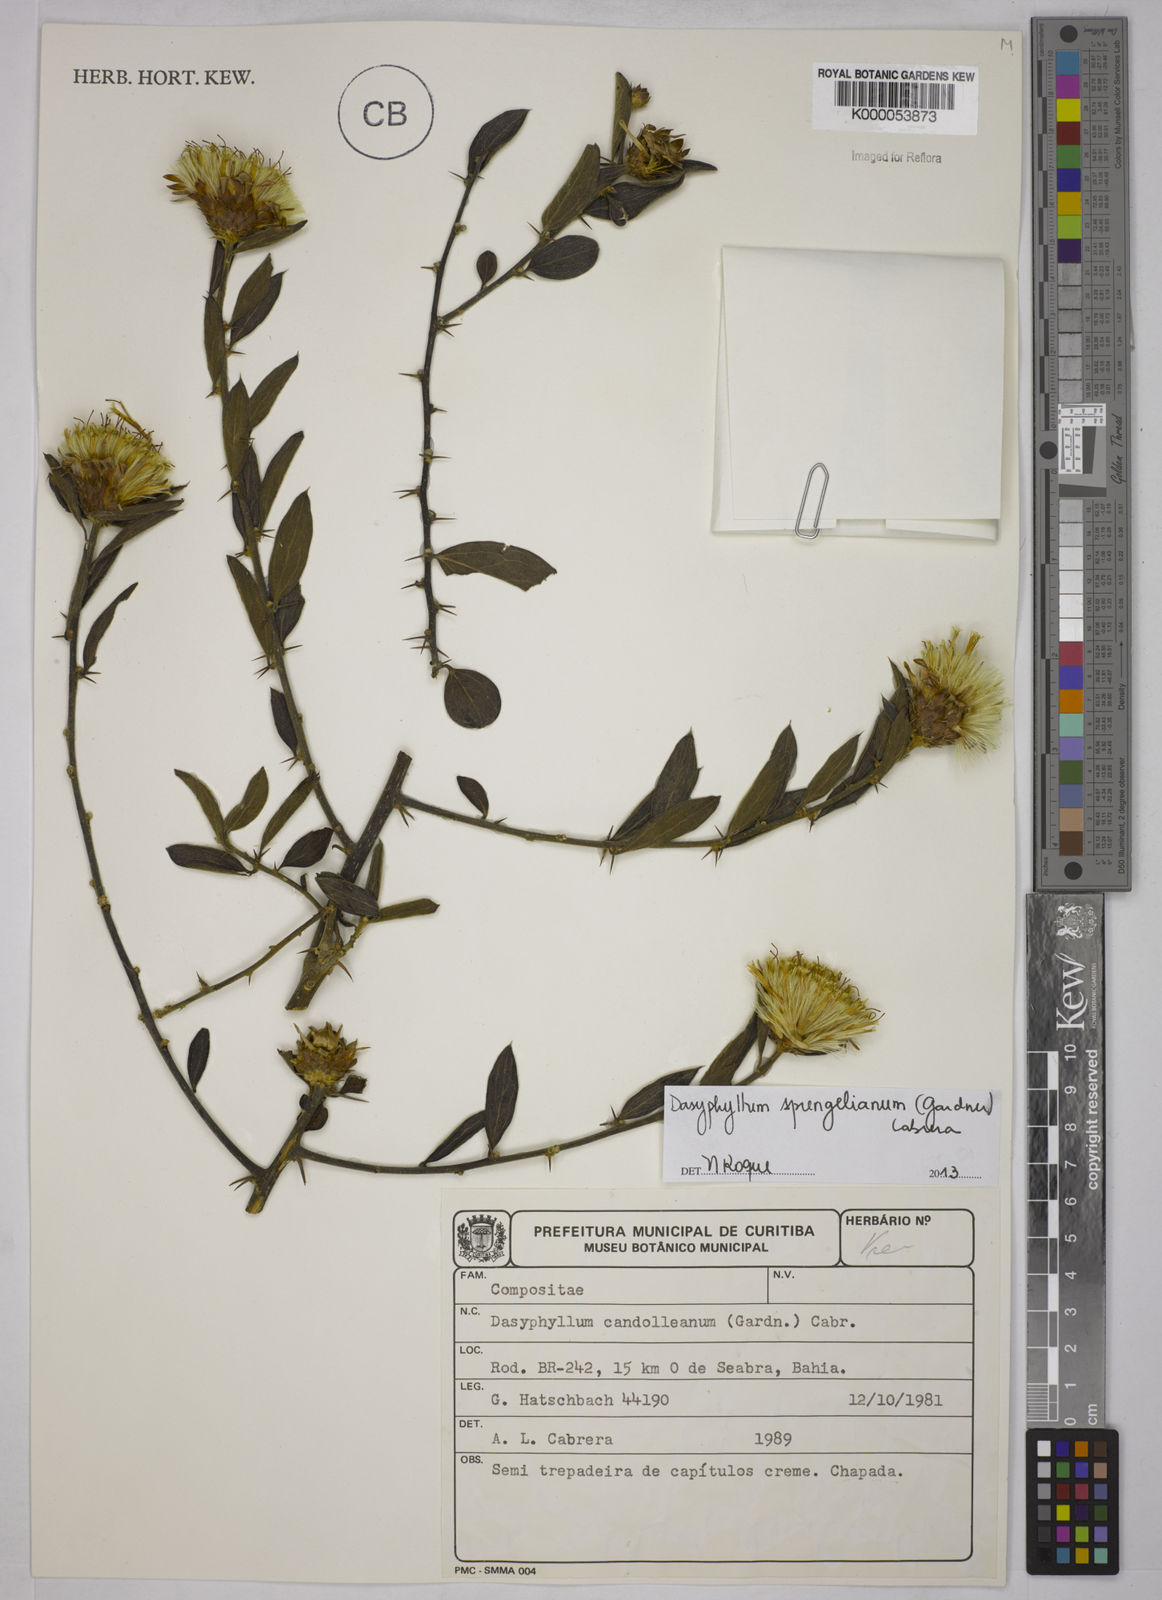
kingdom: Plantae
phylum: Tracheophyta
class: Magnoliopsida
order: Asterales
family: Asteraceae
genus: Dasyphyllum
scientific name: Dasyphyllum candolleanum
